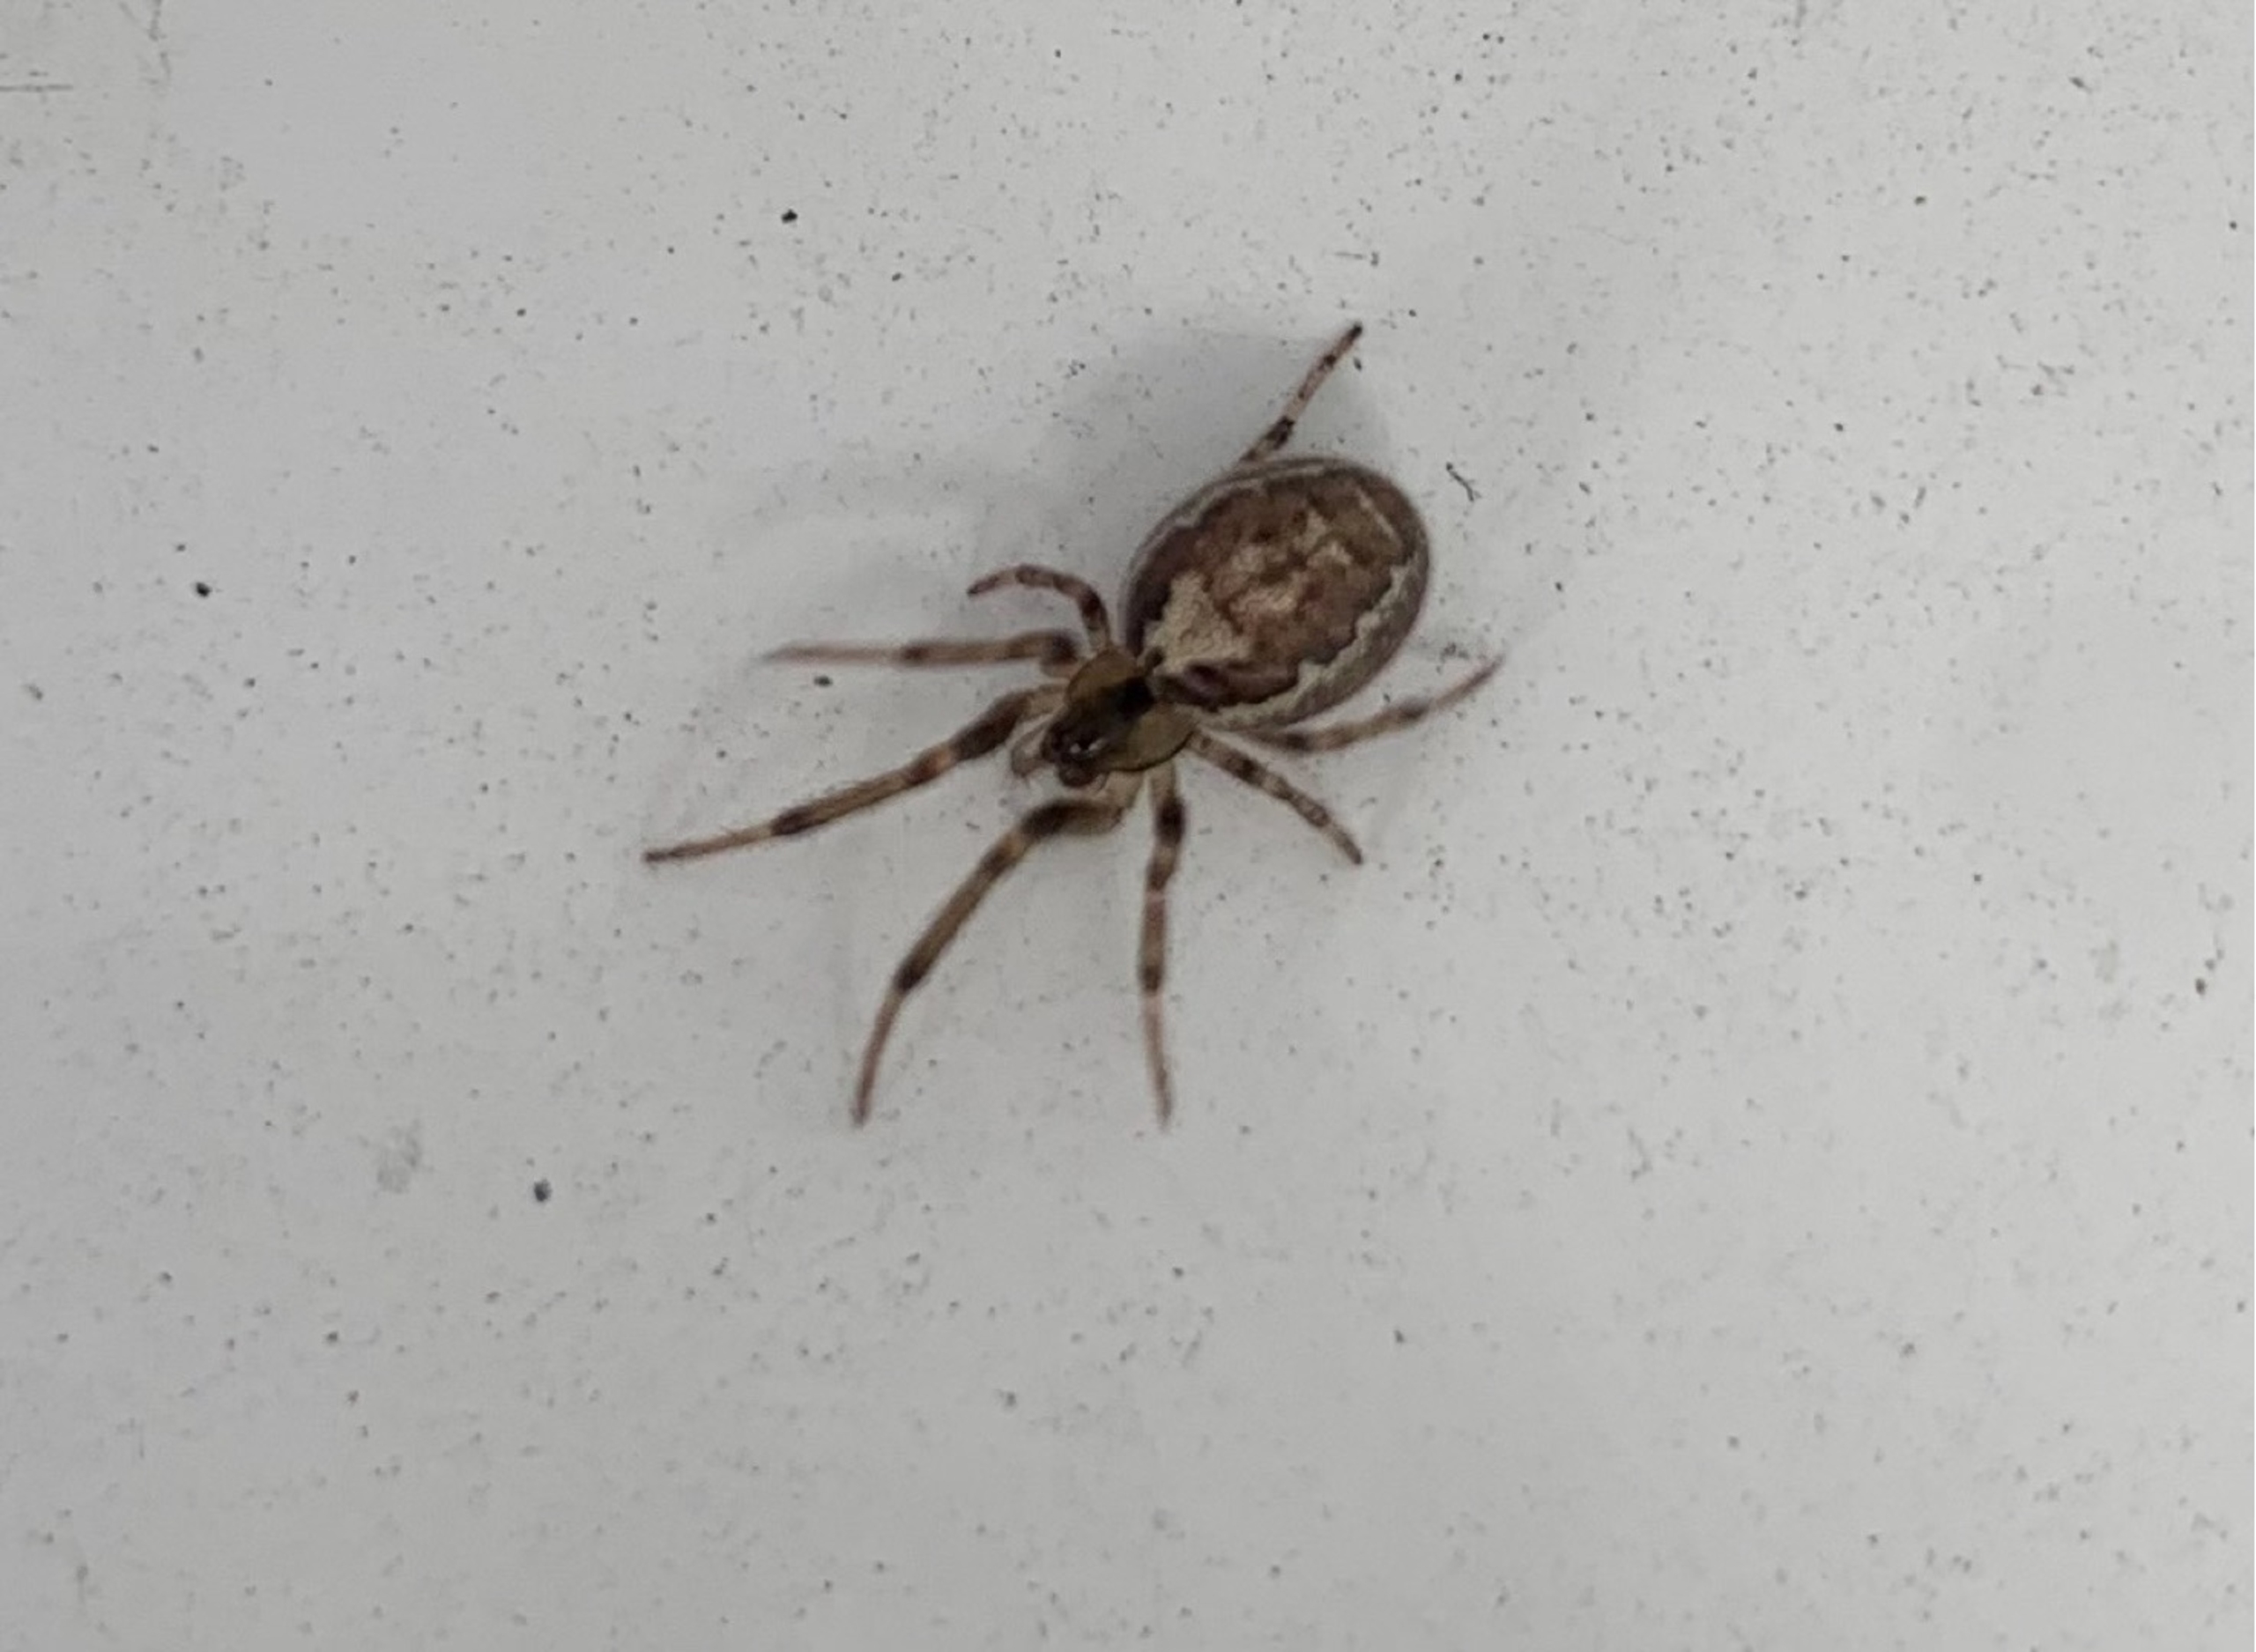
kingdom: Animalia
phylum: Arthropoda
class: Arachnida
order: Araneae
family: Araneidae
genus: Zygiella
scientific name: Zygiella x-notata
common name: Grå sektoredderkop
